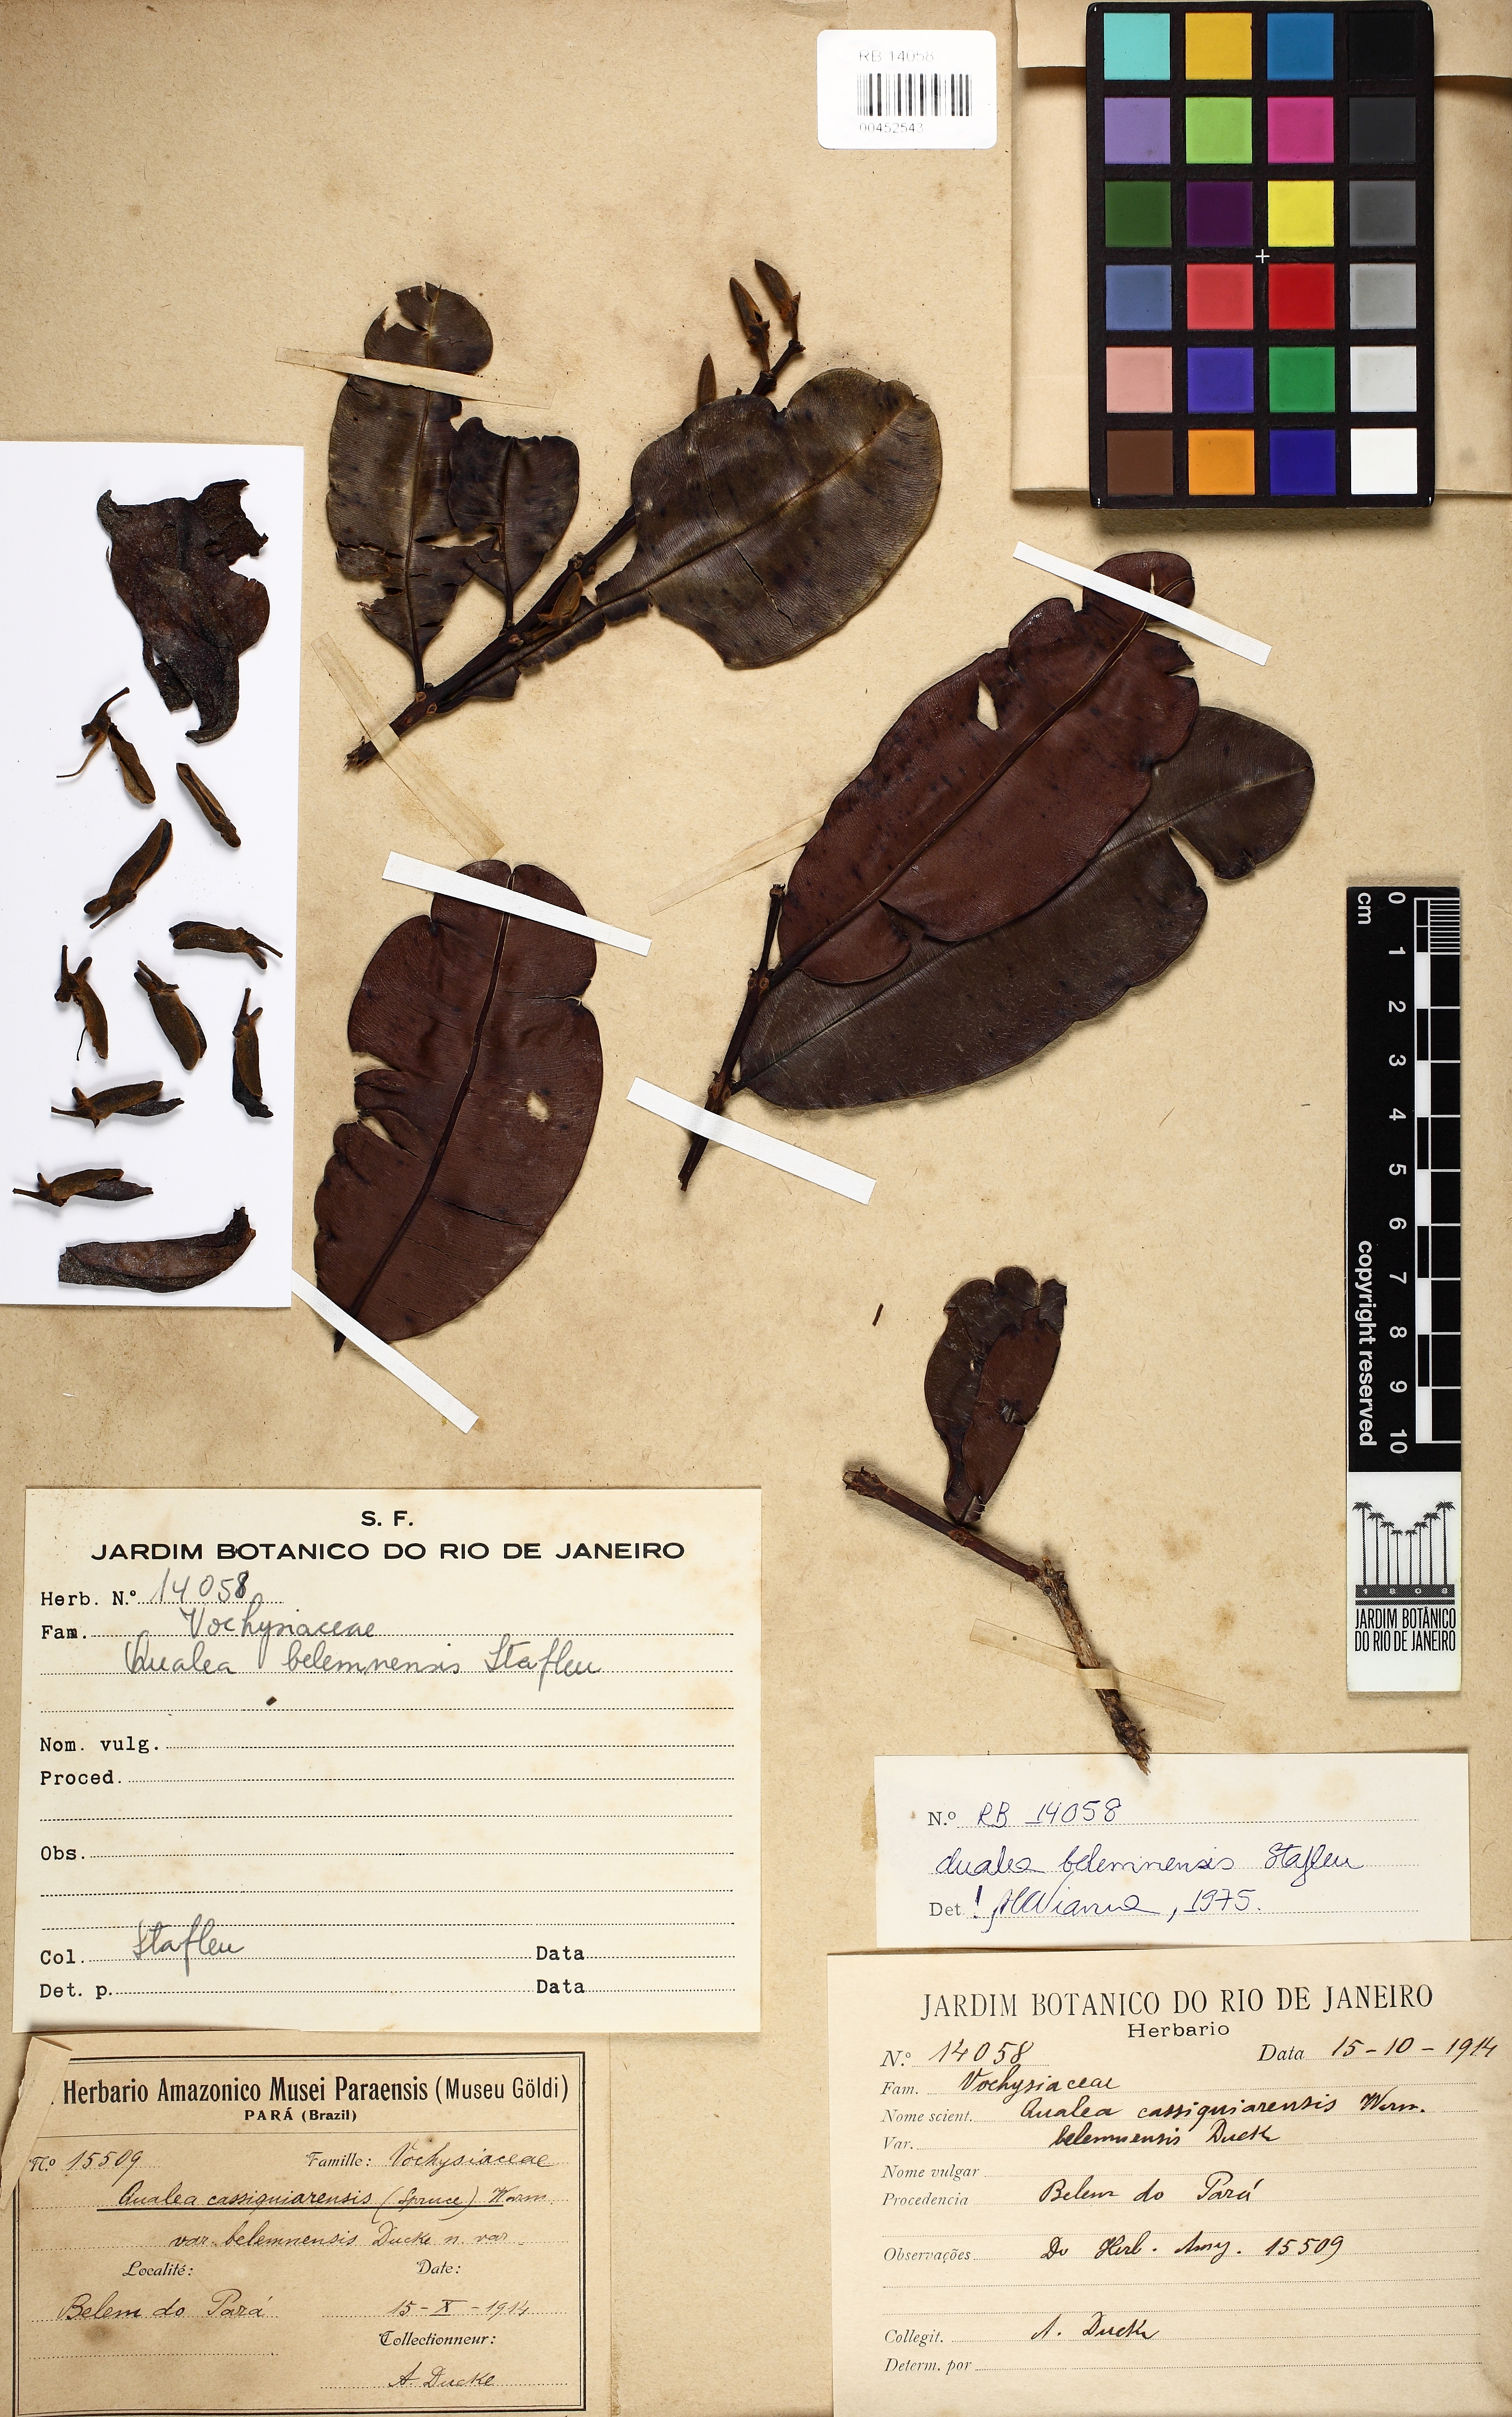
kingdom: Plantae
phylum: Tracheophyta
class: Magnoliopsida
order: Myrtales
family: Vochysiaceae
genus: Ruizterania
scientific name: Ruizterania belemnensis
